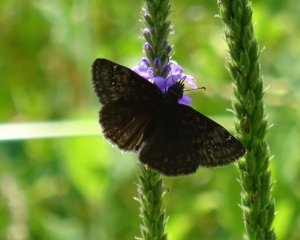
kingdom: Animalia
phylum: Arthropoda
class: Insecta
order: Lepidoptera
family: Hesperiidae
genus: Gesta
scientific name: Gesta
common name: Wild Indigo Duskywing
